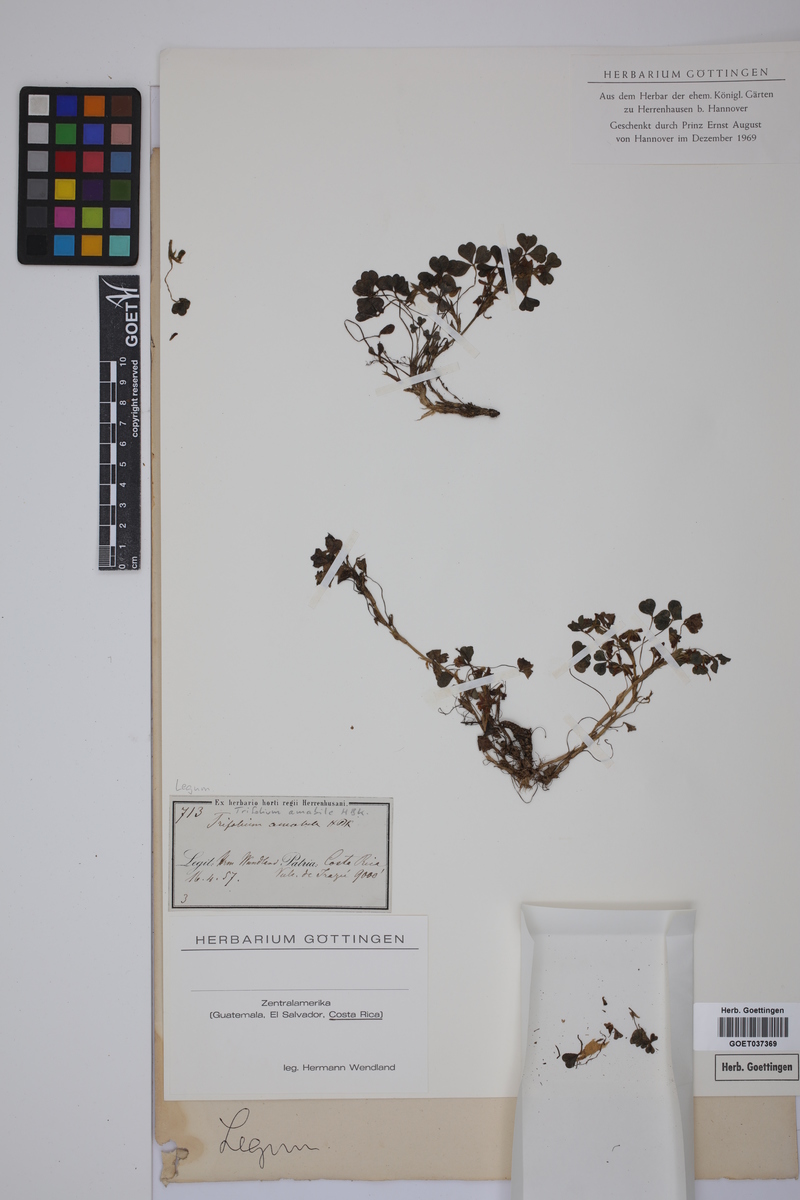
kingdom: Plantae
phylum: Tracheophyta
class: Magnoliopsida
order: Fabales
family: Fabaceae
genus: Trifolium
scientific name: Trifolium amabile
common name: Aztec clover
